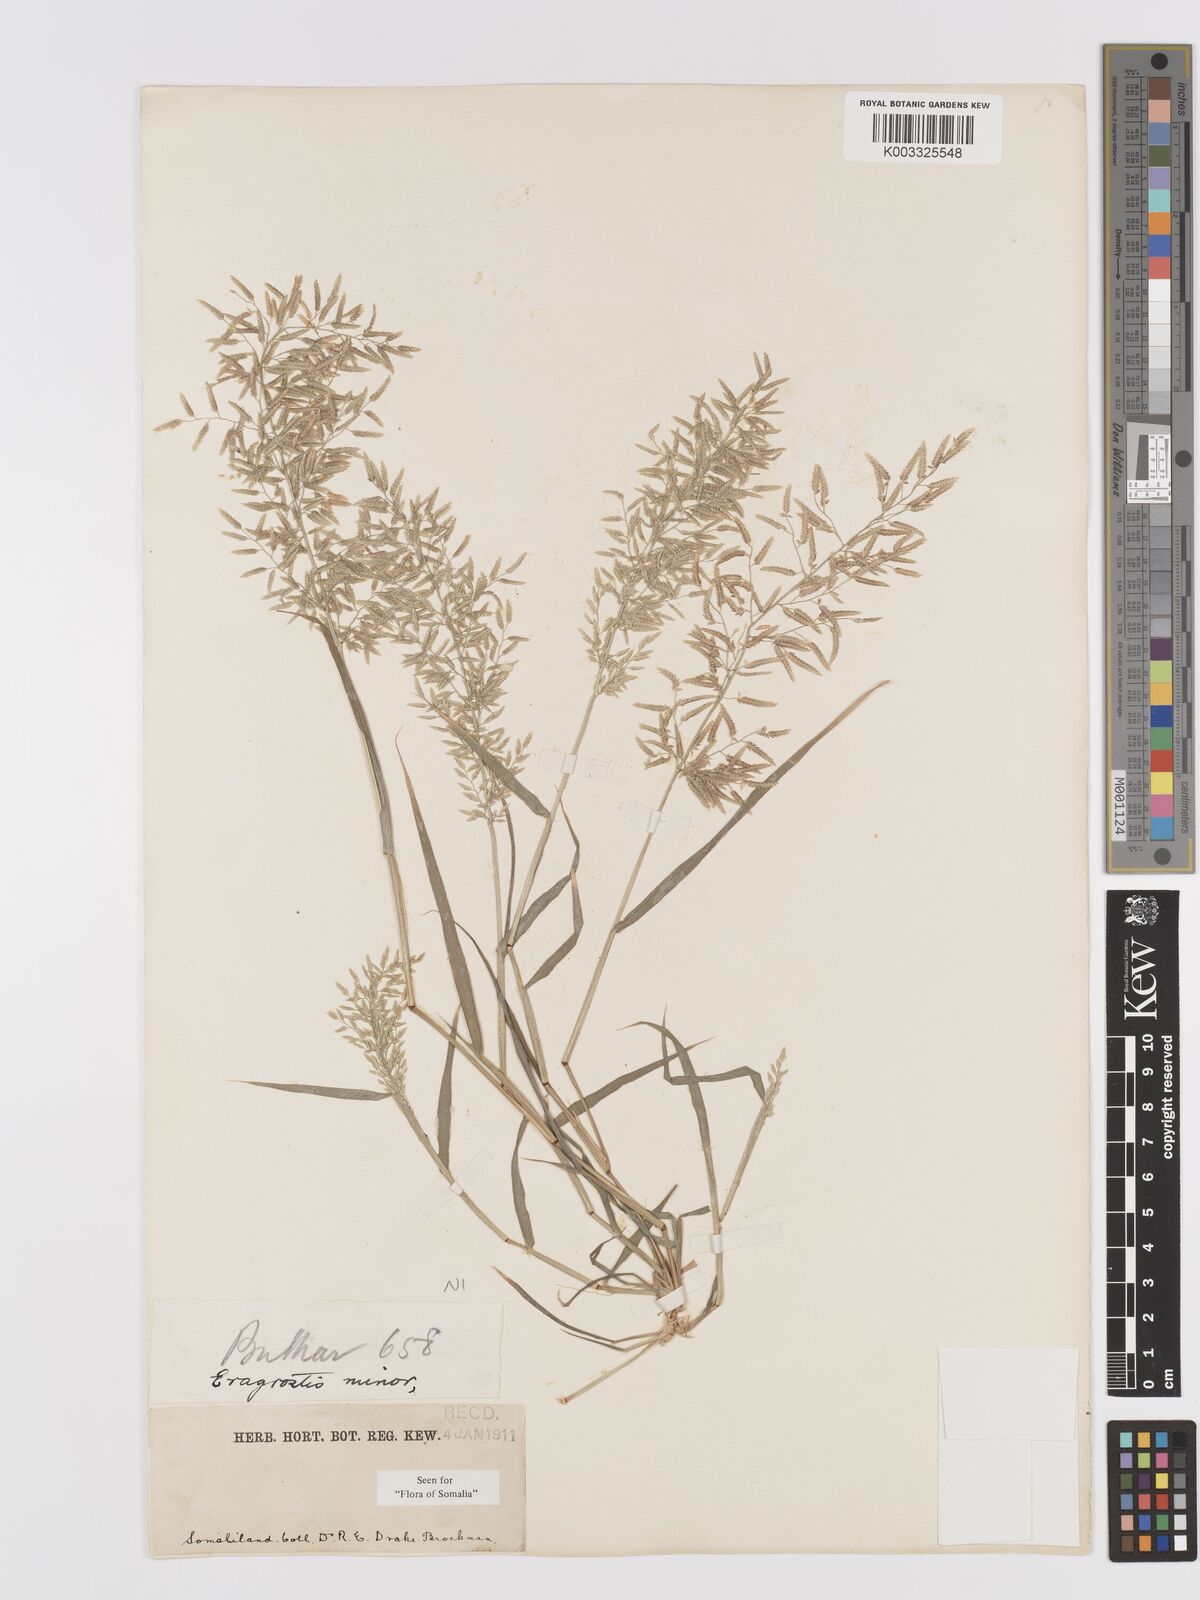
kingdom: Plantae
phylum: Tracheophyta
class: Liliopsida
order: Poales
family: Poaceae
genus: Eragrostis
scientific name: Eragrostis minor
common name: Small love-grass
